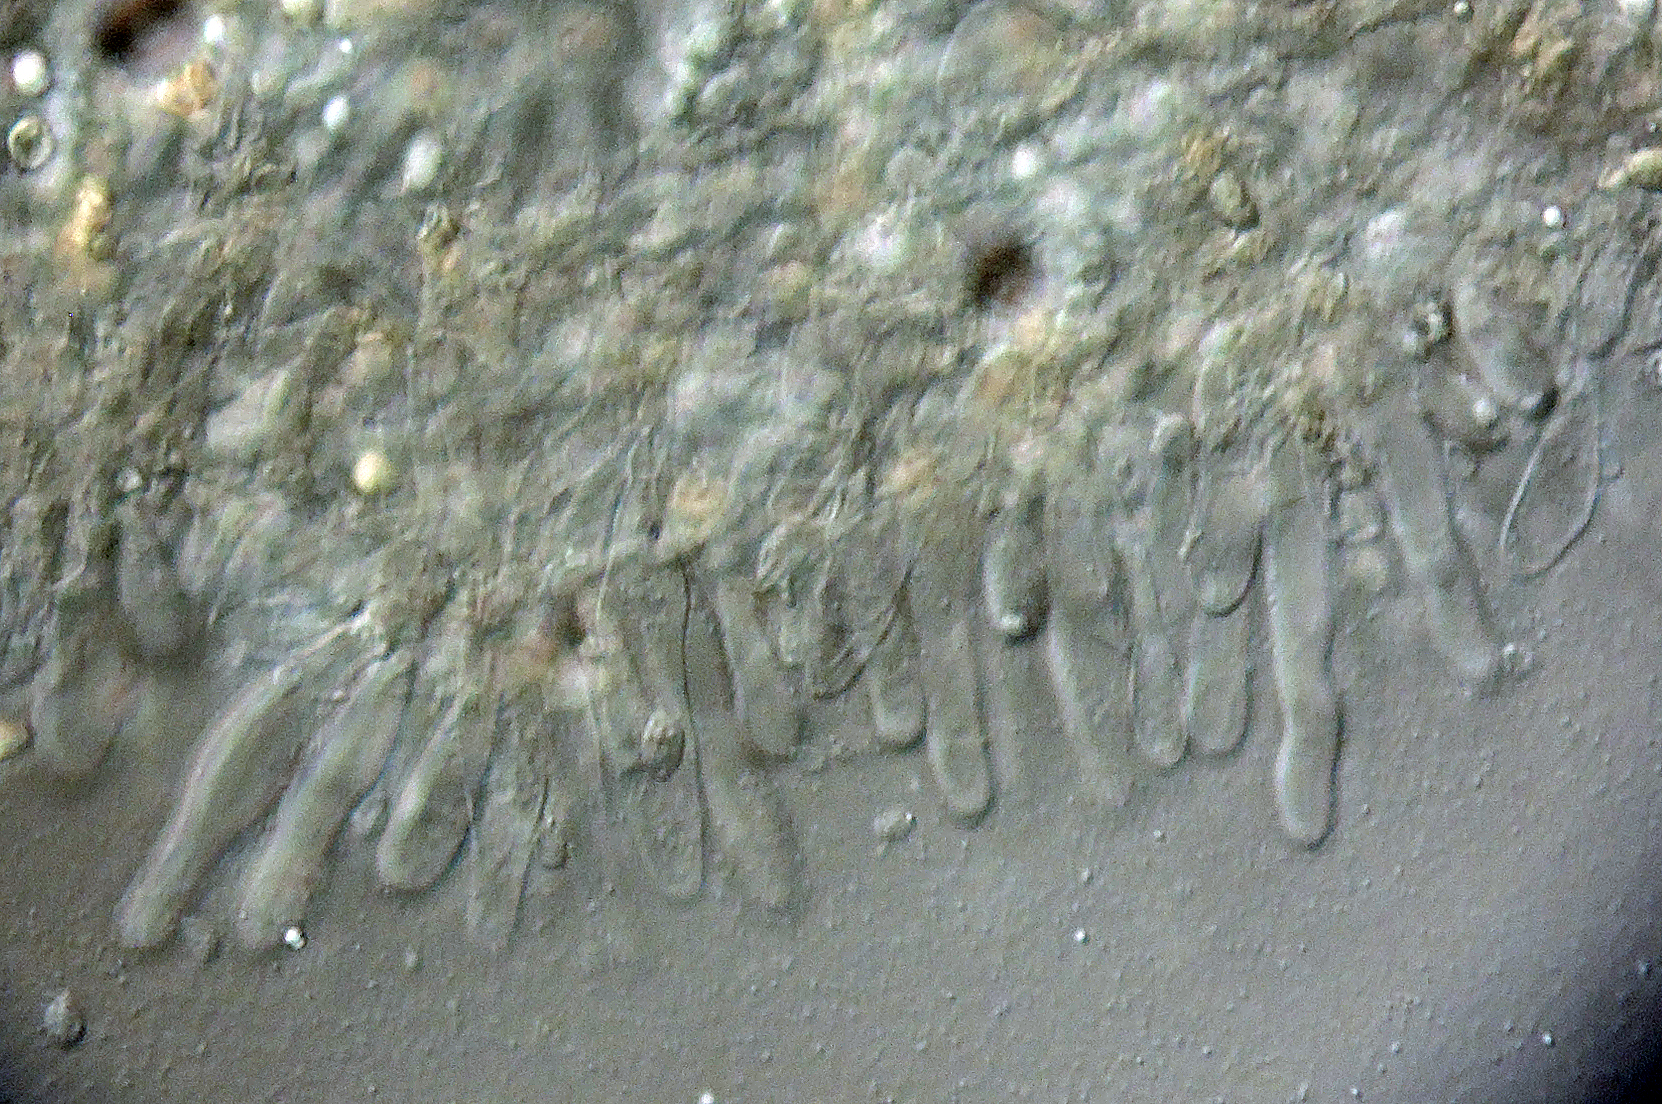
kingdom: Fungi
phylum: Basidiomycota
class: Agaricomycetes
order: Agaricales
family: Tubariaceae
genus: Tubaria
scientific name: Tubaria conspersa
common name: bleg fnughat
